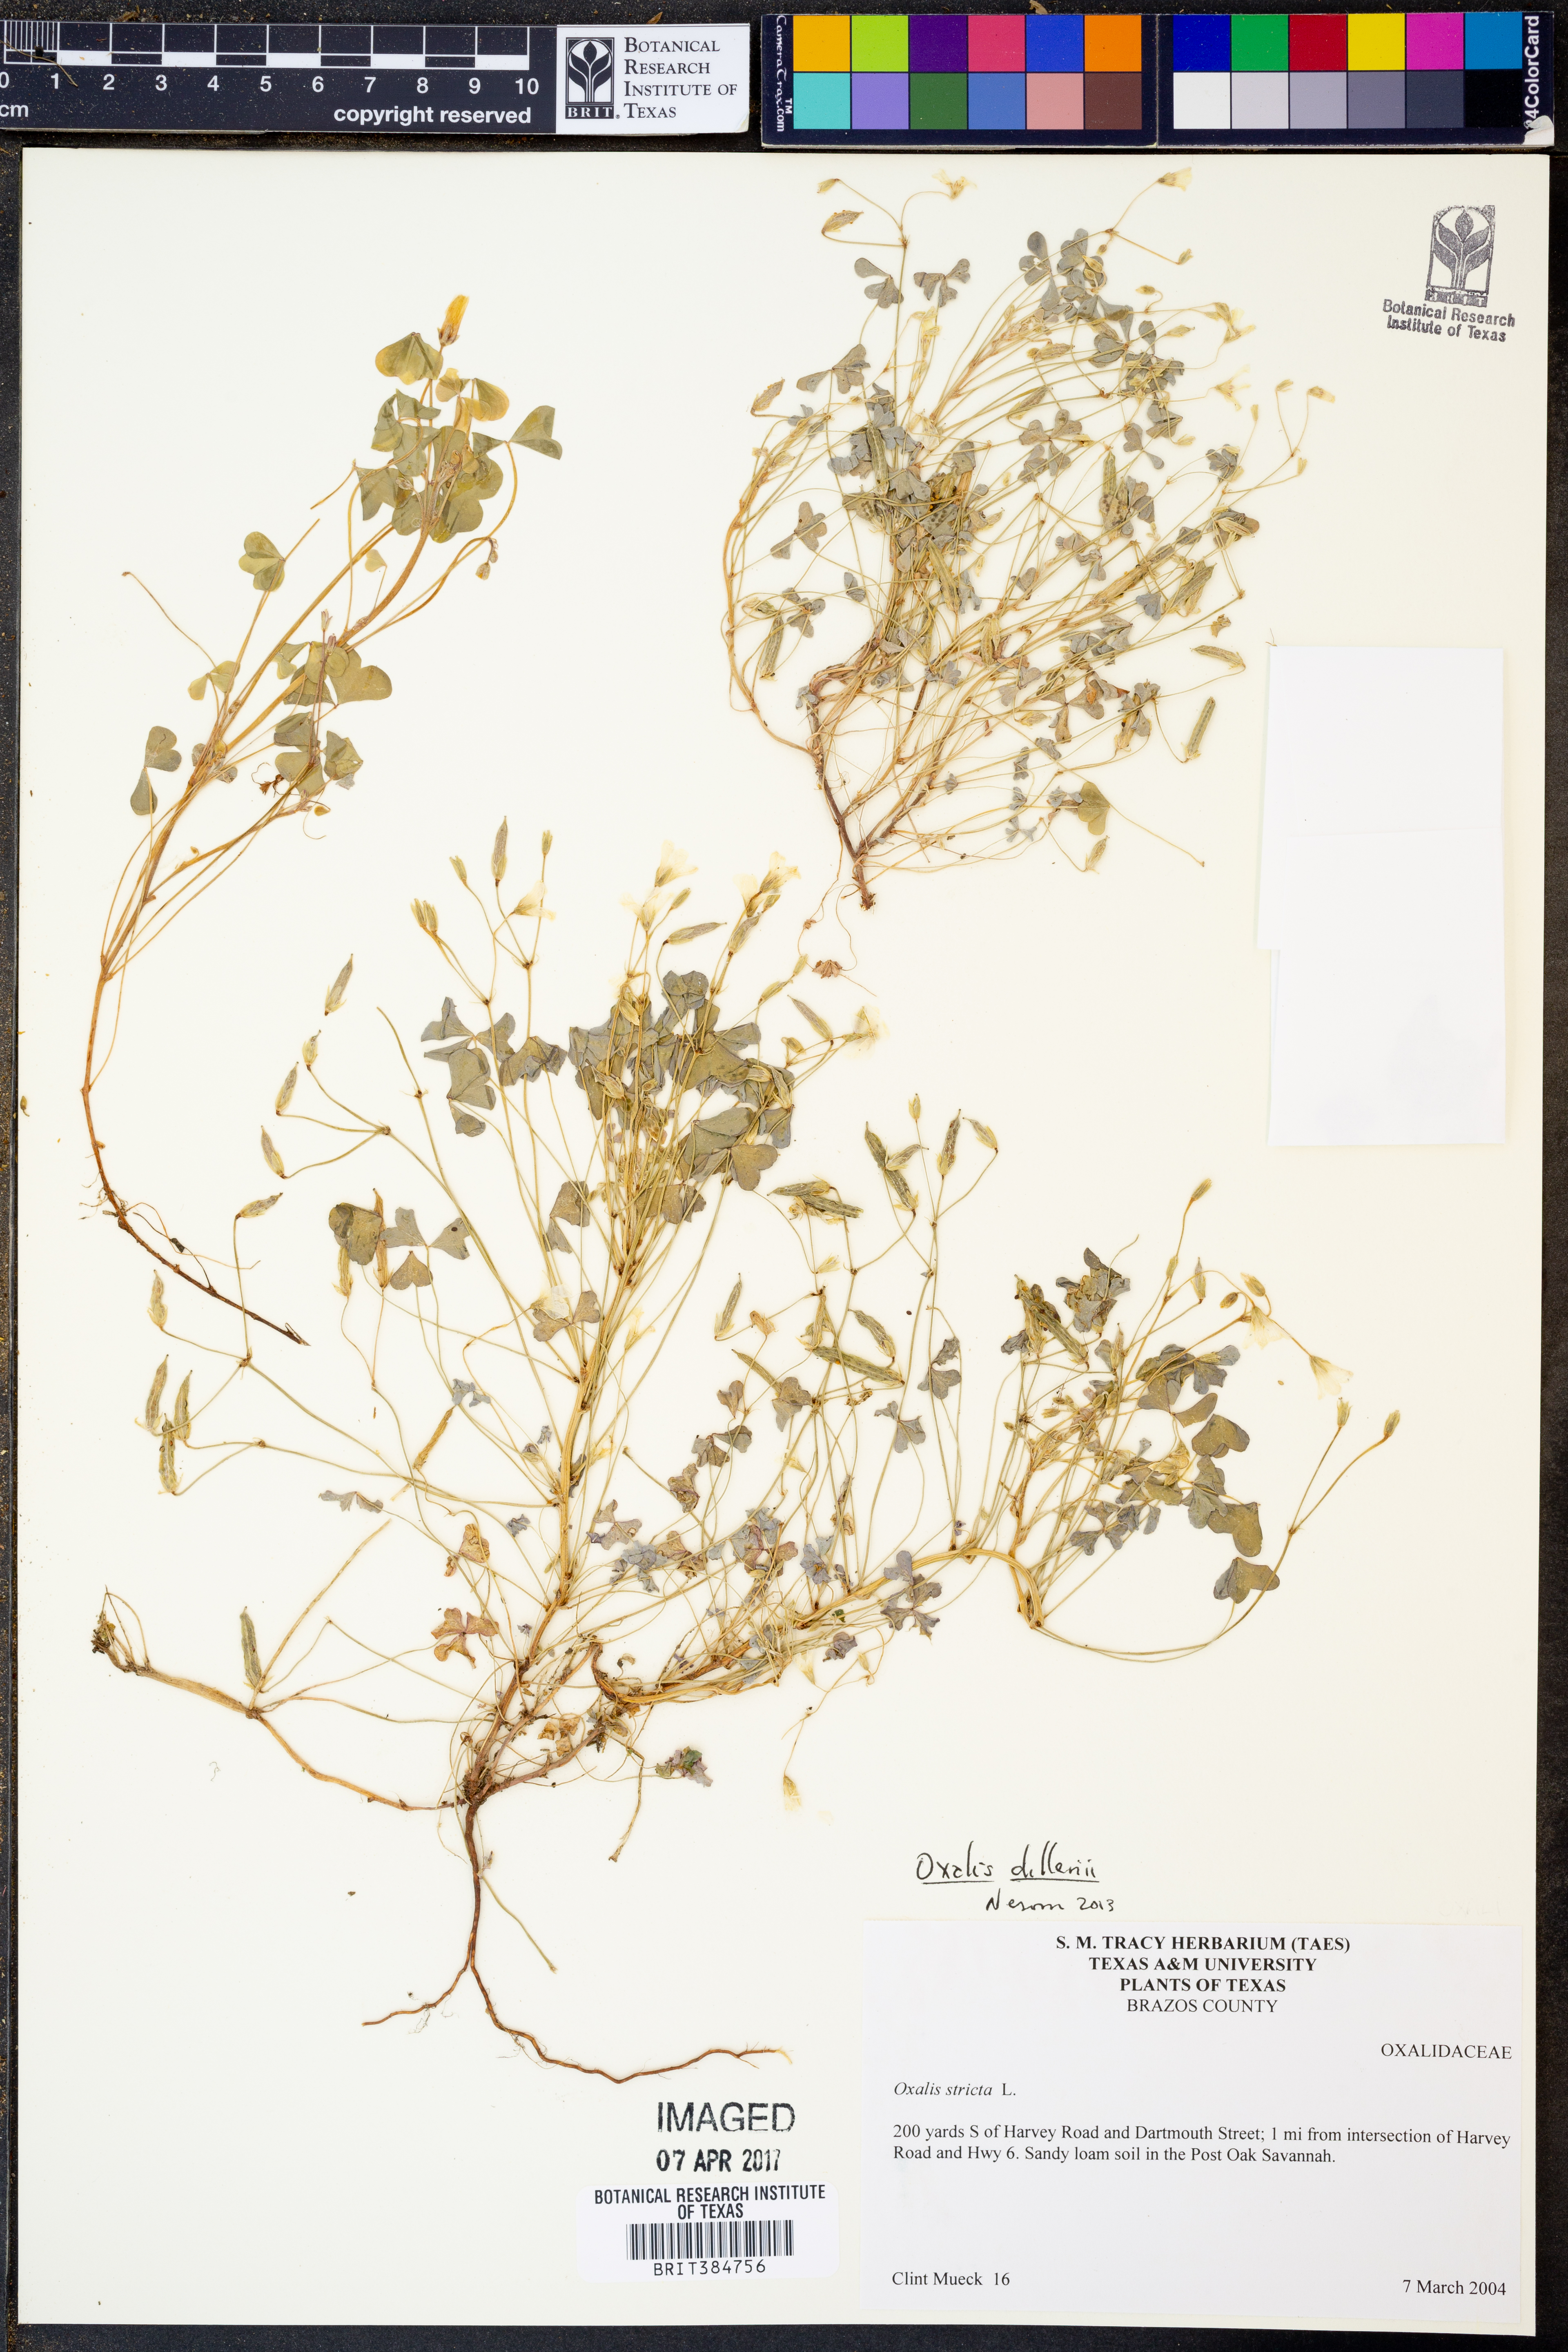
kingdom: Plantae
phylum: Tracheophyta
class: Magnoliopsida
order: Oxalidales
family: Oxalidaceae
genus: Oxalis
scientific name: Oxalis dillenii
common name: Sussex yellow-sorrel
